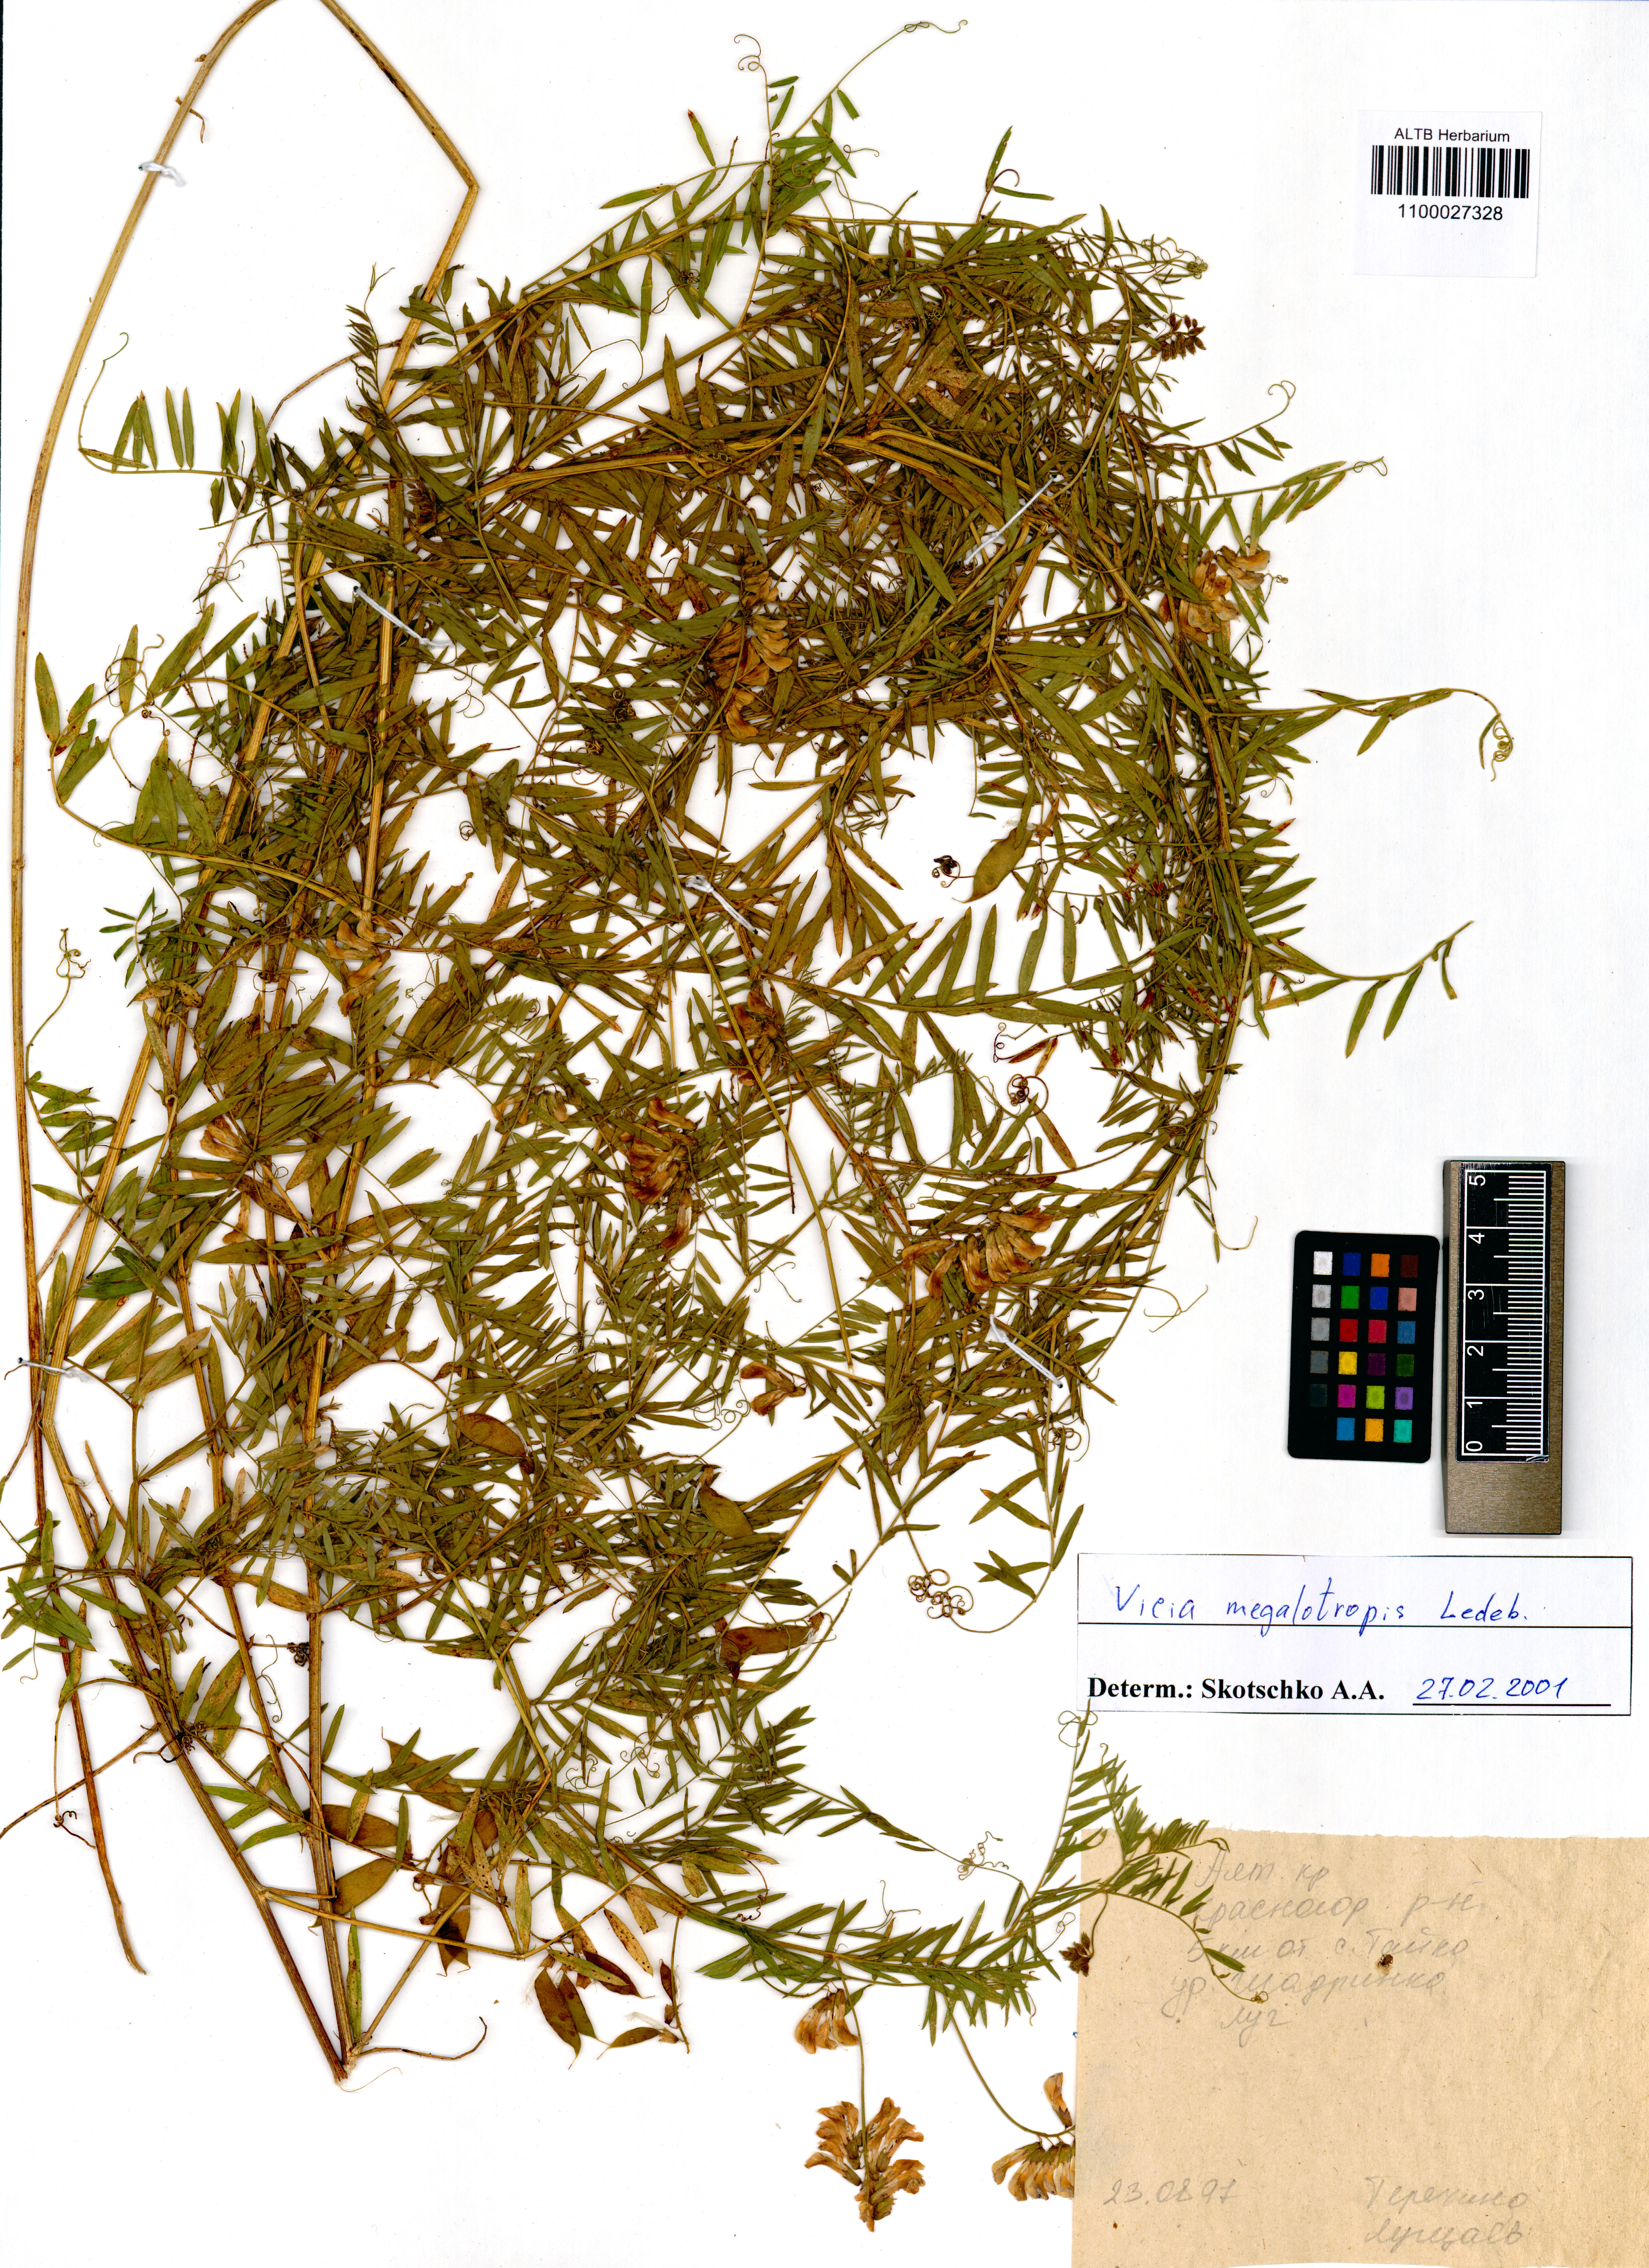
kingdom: Plantae
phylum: Tracheophyta
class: Magnoliopsida
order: Fabales
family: Fabaceae
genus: Vicia
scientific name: Vicia megalotropis
